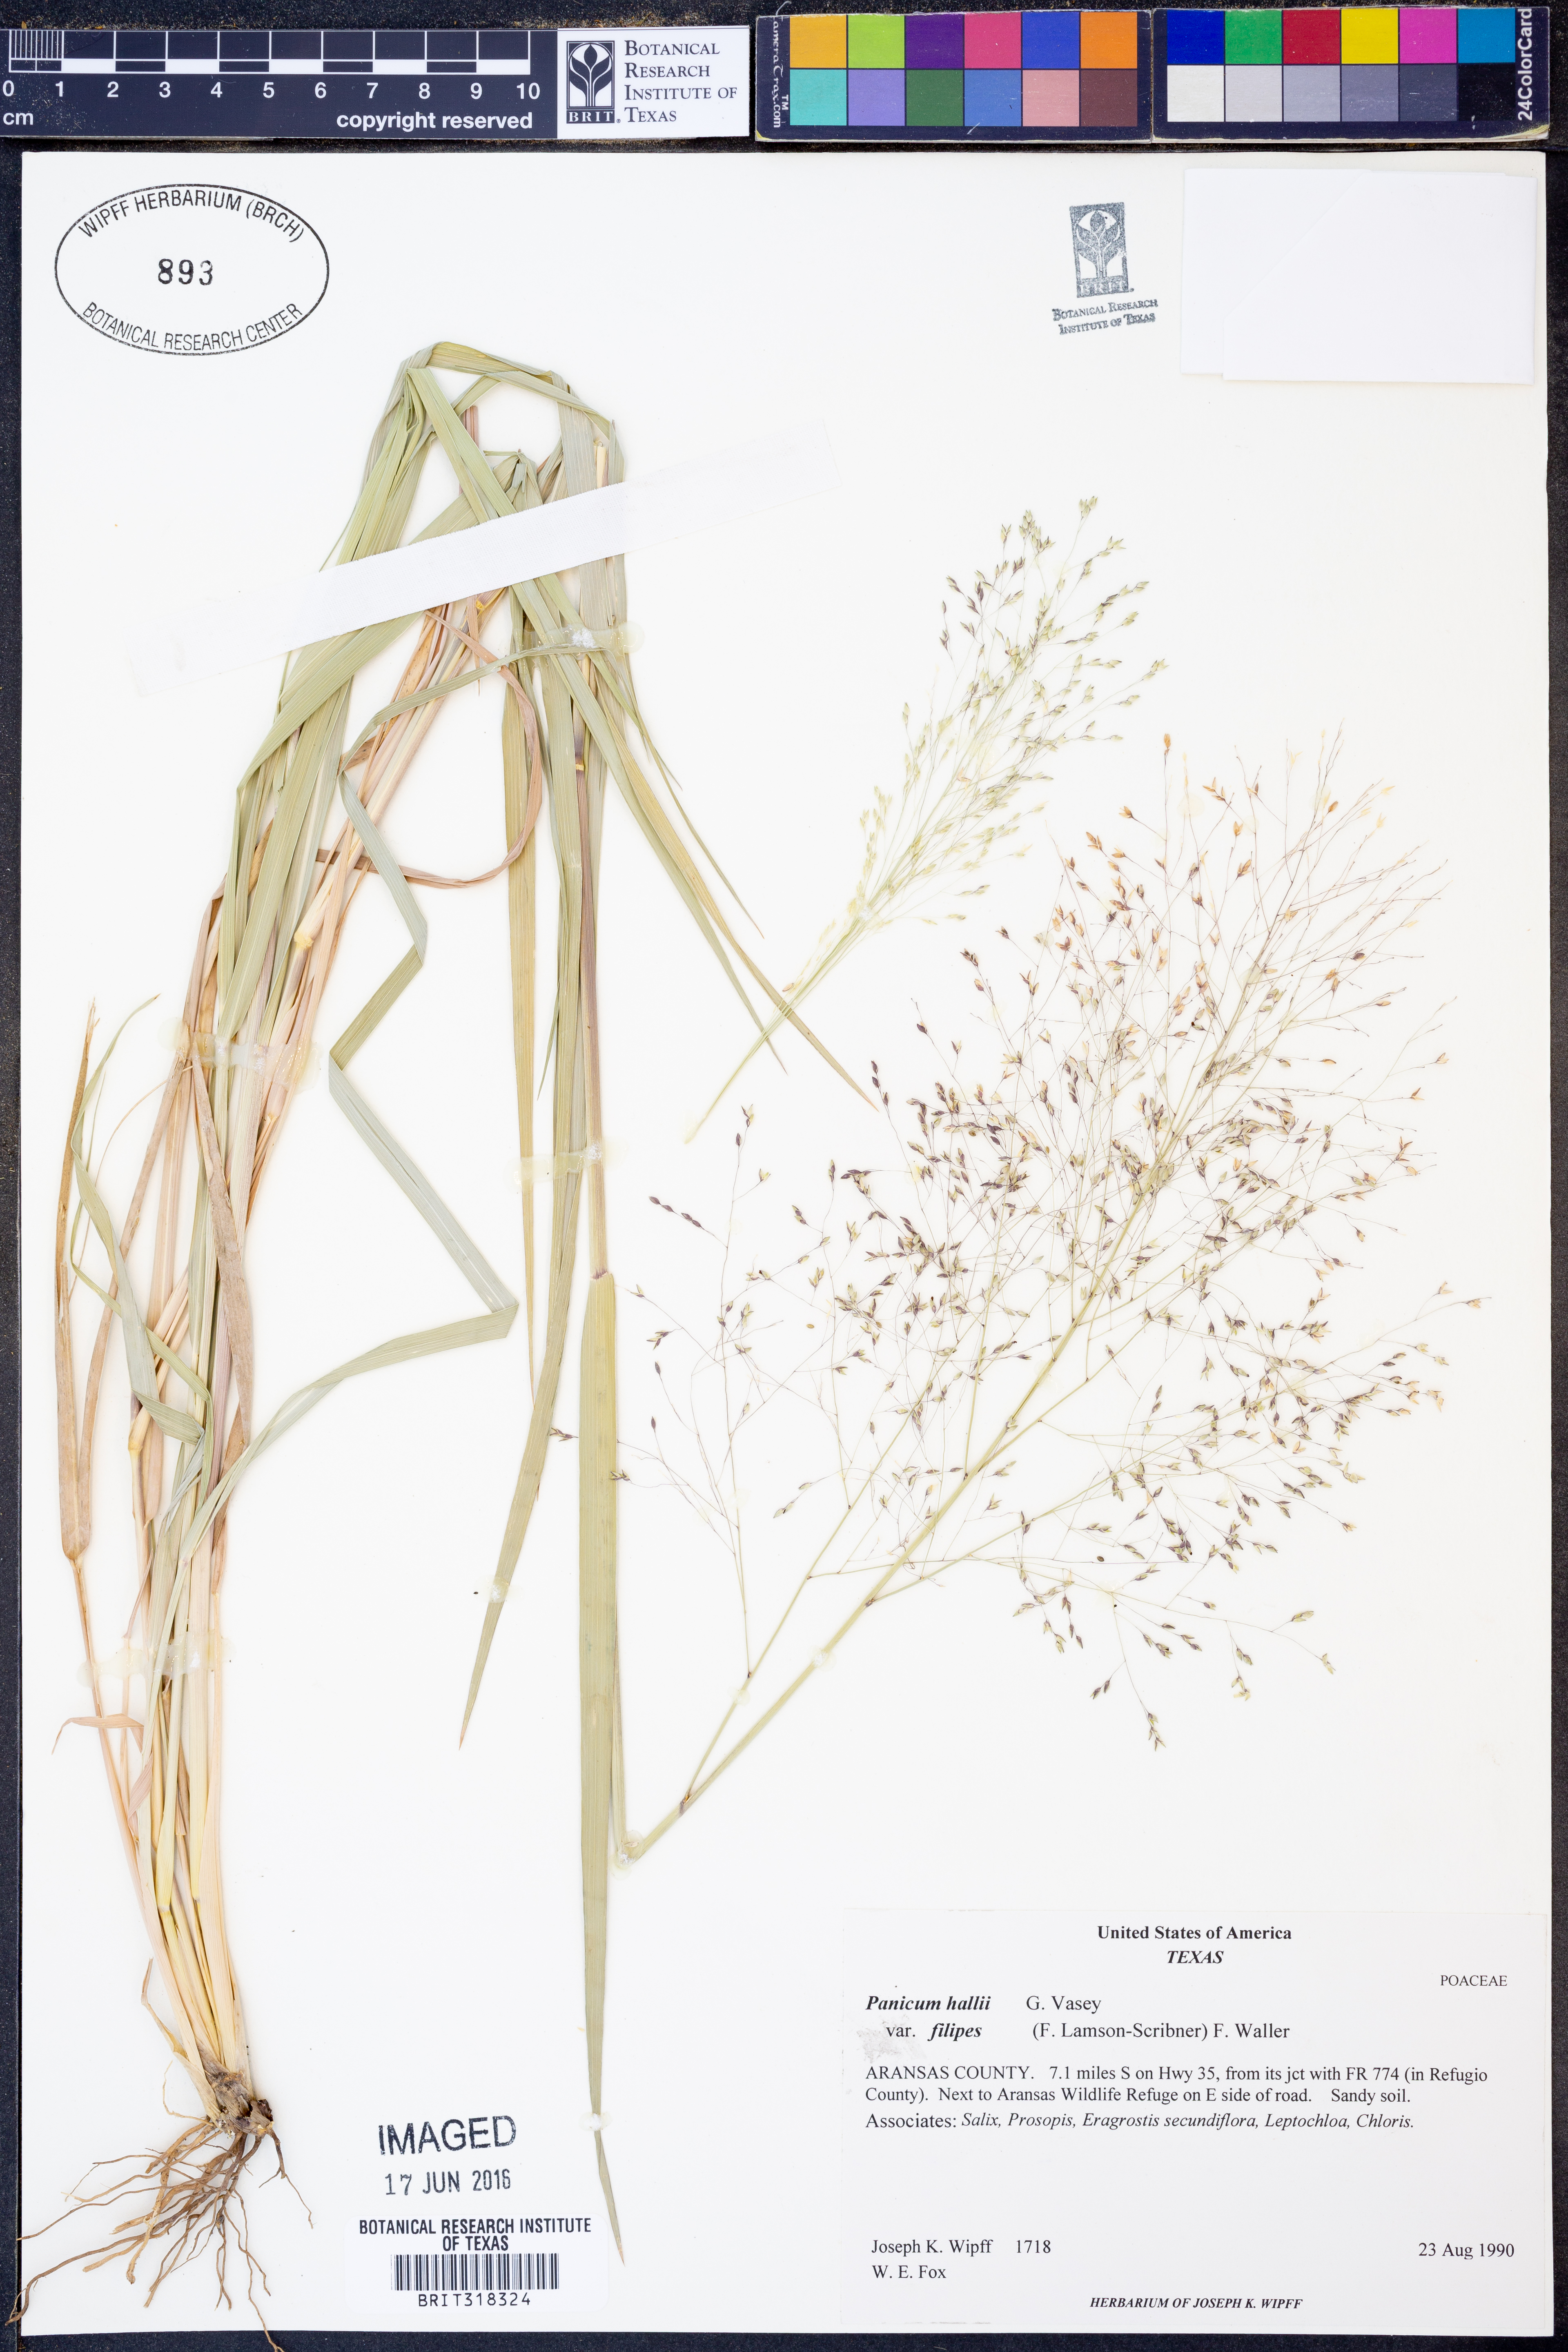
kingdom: Plantae
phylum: Tracheophyta
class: Liliopsida
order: Poales
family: Poaceae
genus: Panicum
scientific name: Panicum hallii
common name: Hall's witchgrass
